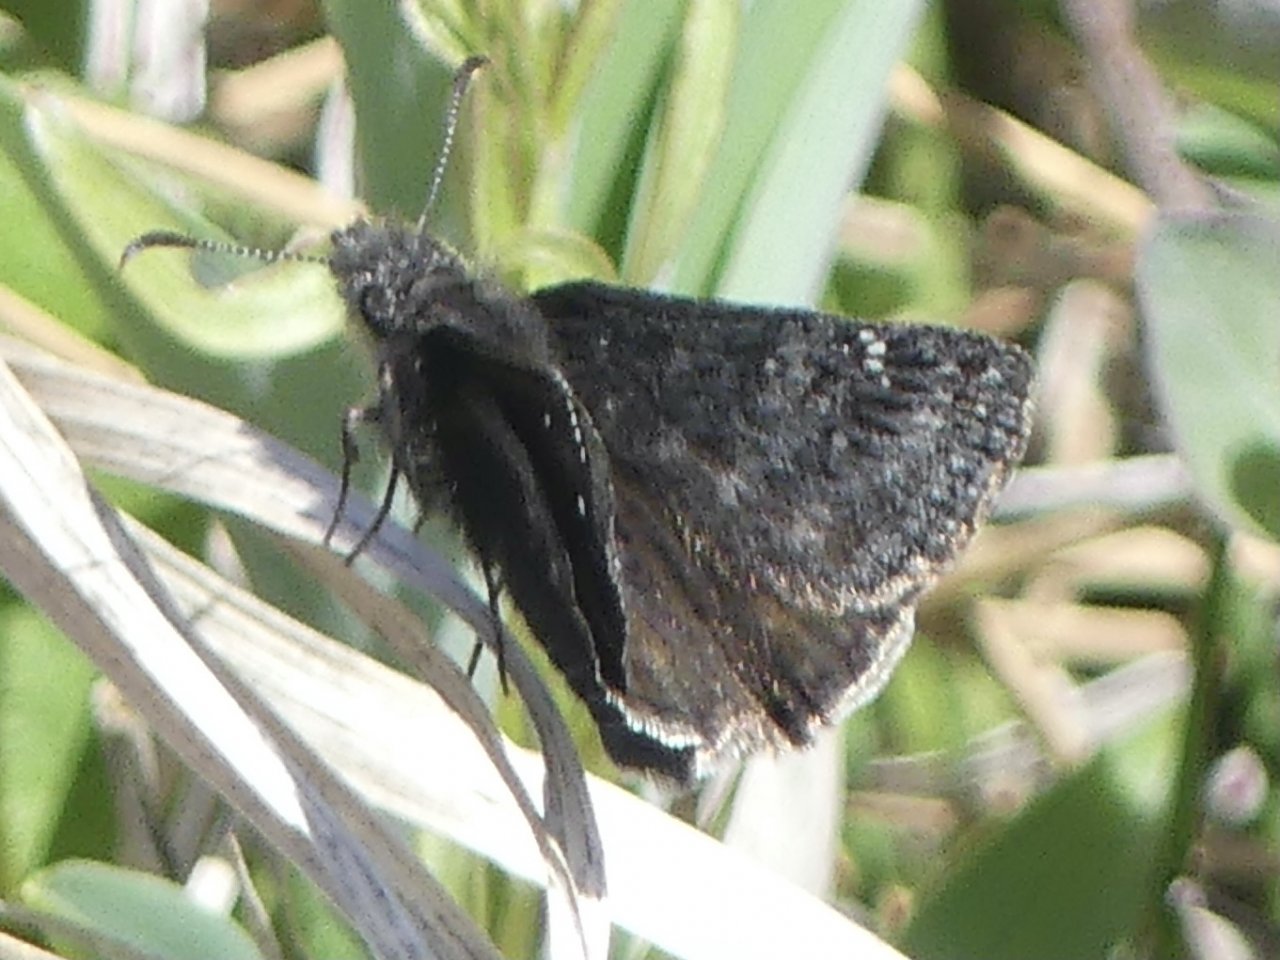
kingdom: Animalia
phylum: Arthropoda
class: Insecta
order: Lepidoptera
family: Hesperiidae
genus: Gesta
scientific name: Gesta
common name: Persius Duskywing
